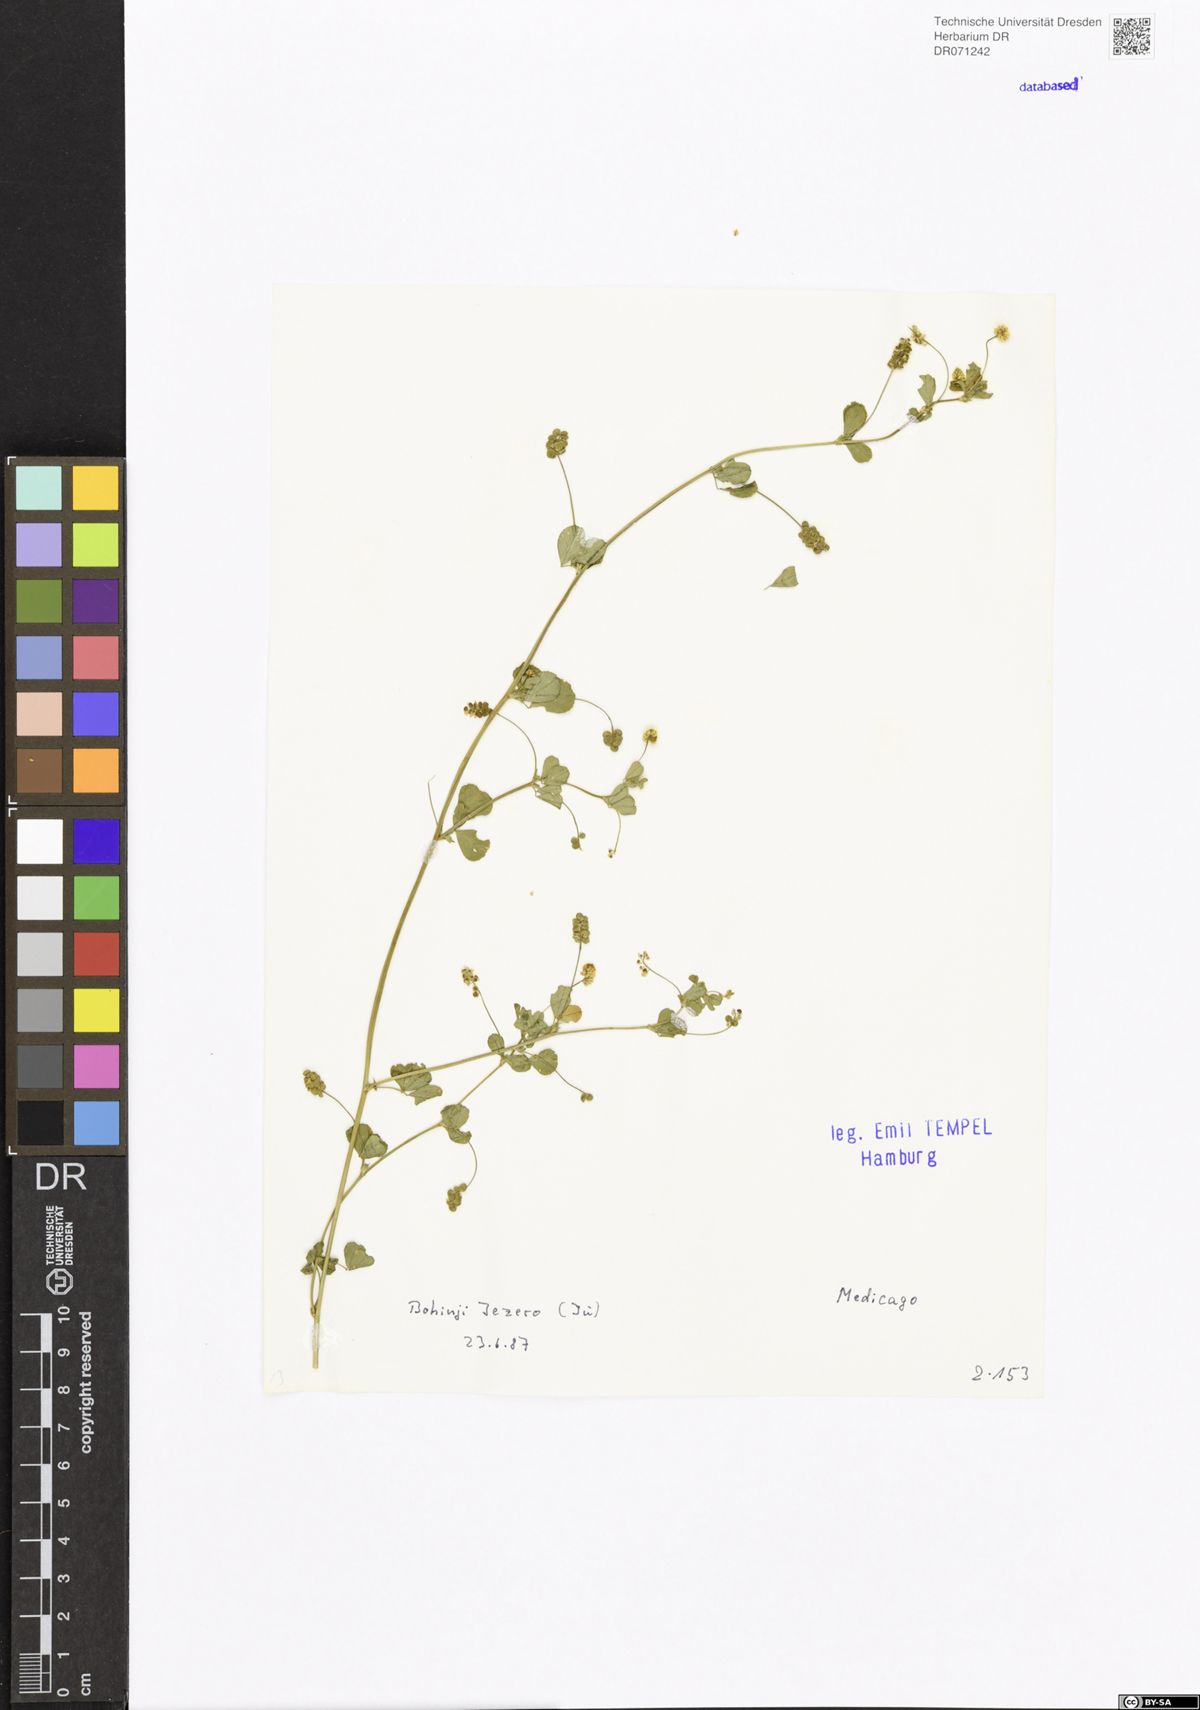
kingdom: Plantae
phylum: Tracheophyta
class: Magnoliopsida
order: Fabales
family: Fabaceae
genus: Medicago
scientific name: Medicago
